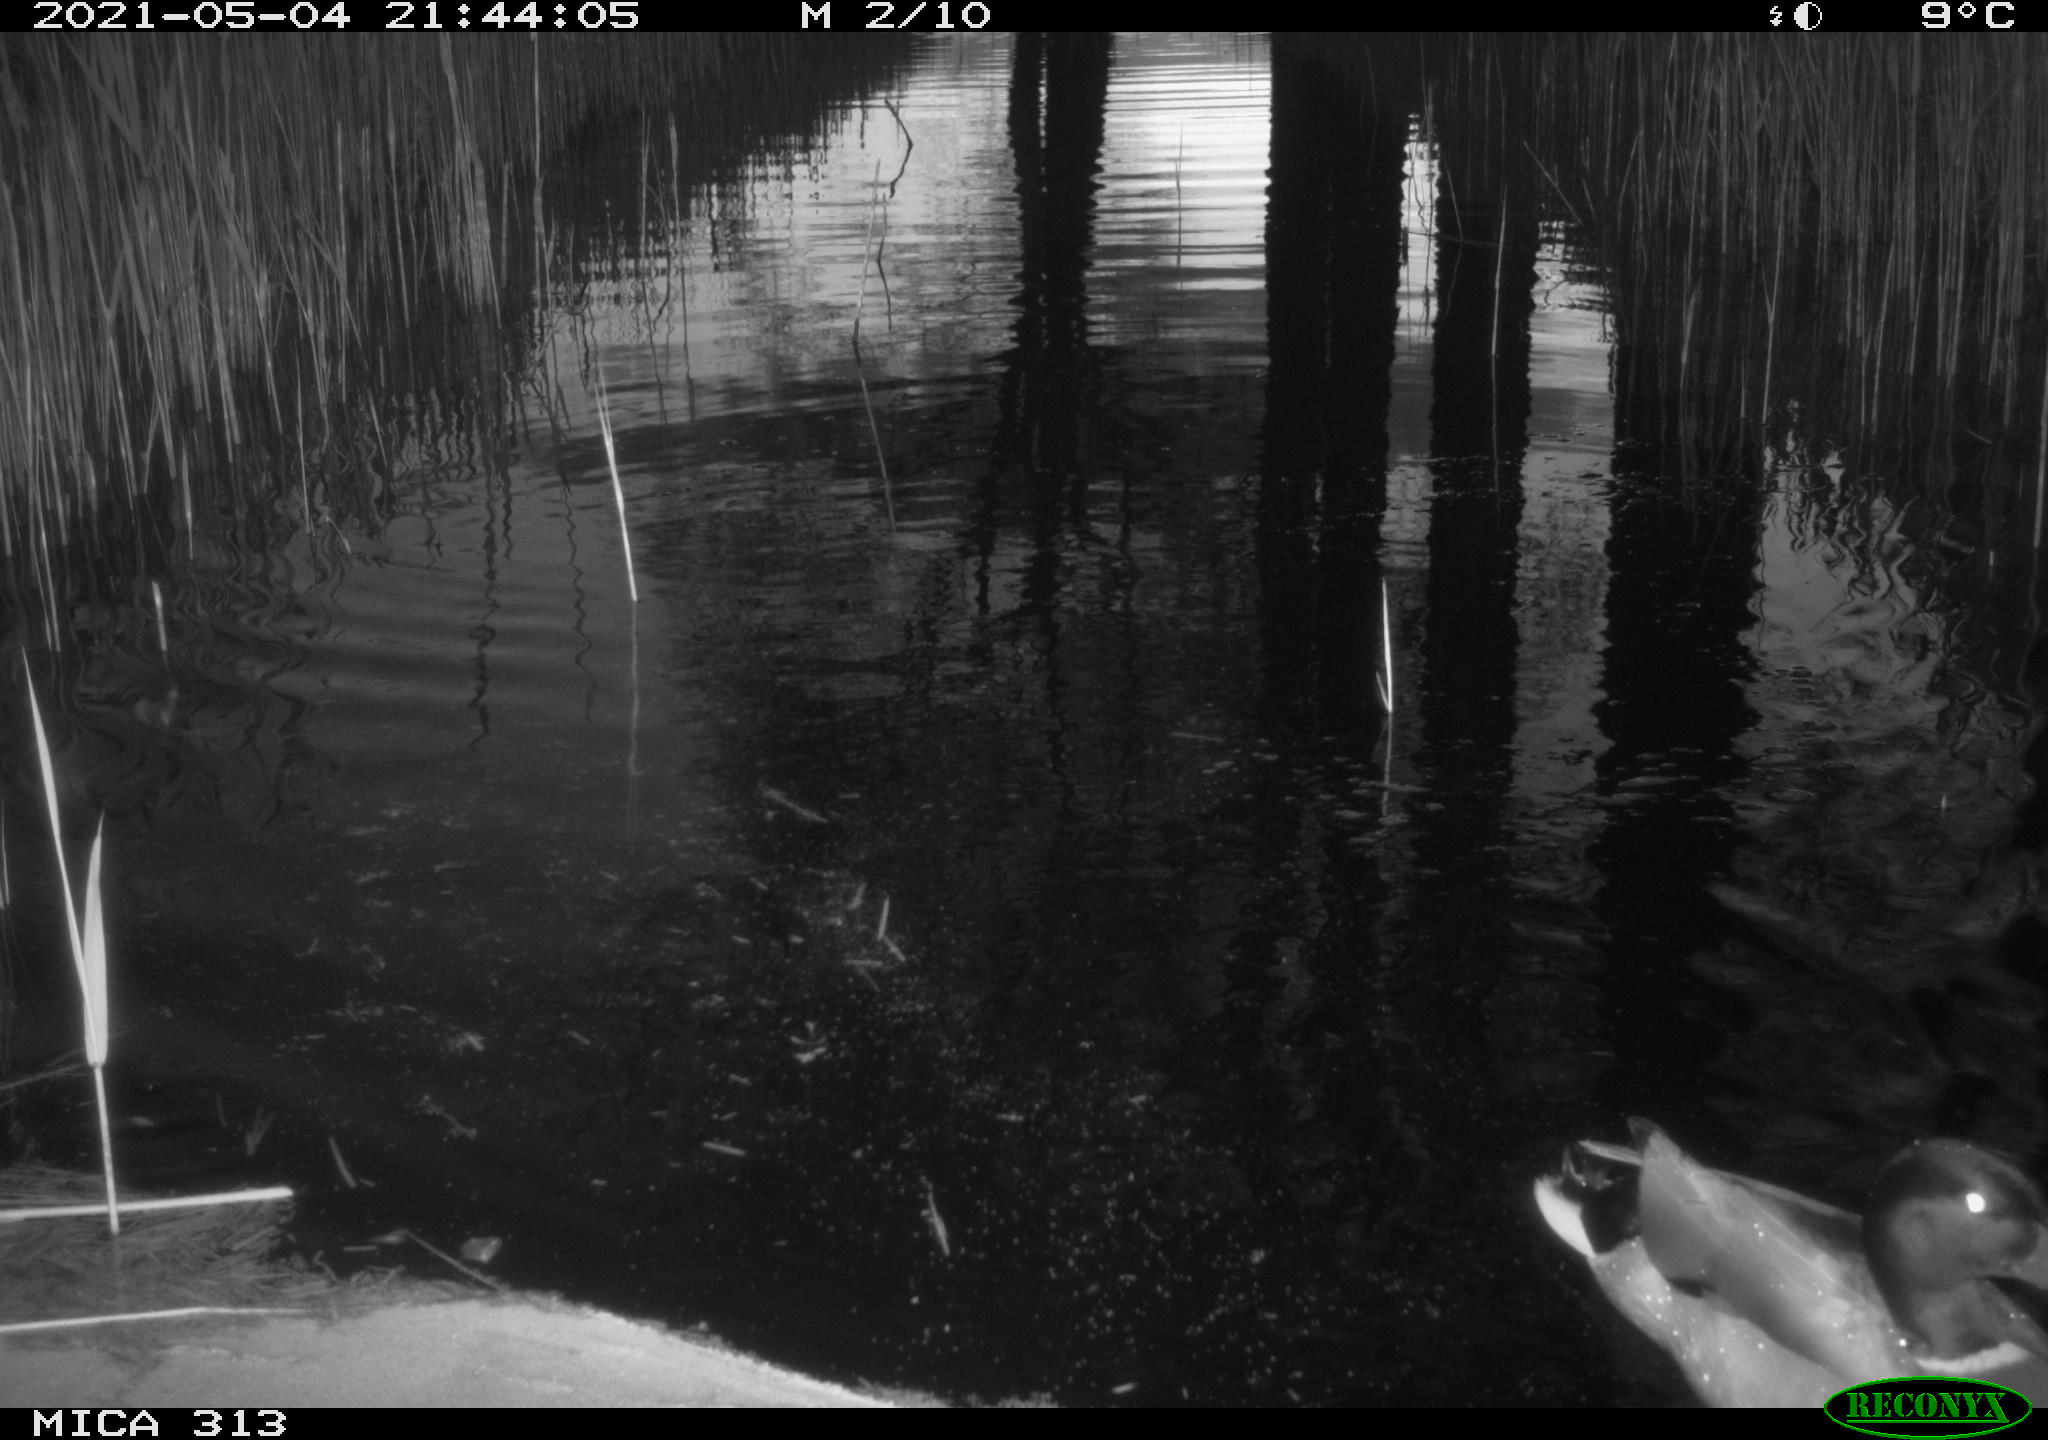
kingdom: Animalia
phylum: Chordata
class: Aves
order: Anseriformes
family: Anatidae
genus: Anas
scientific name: Anas platyrhynchos
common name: Mallard
